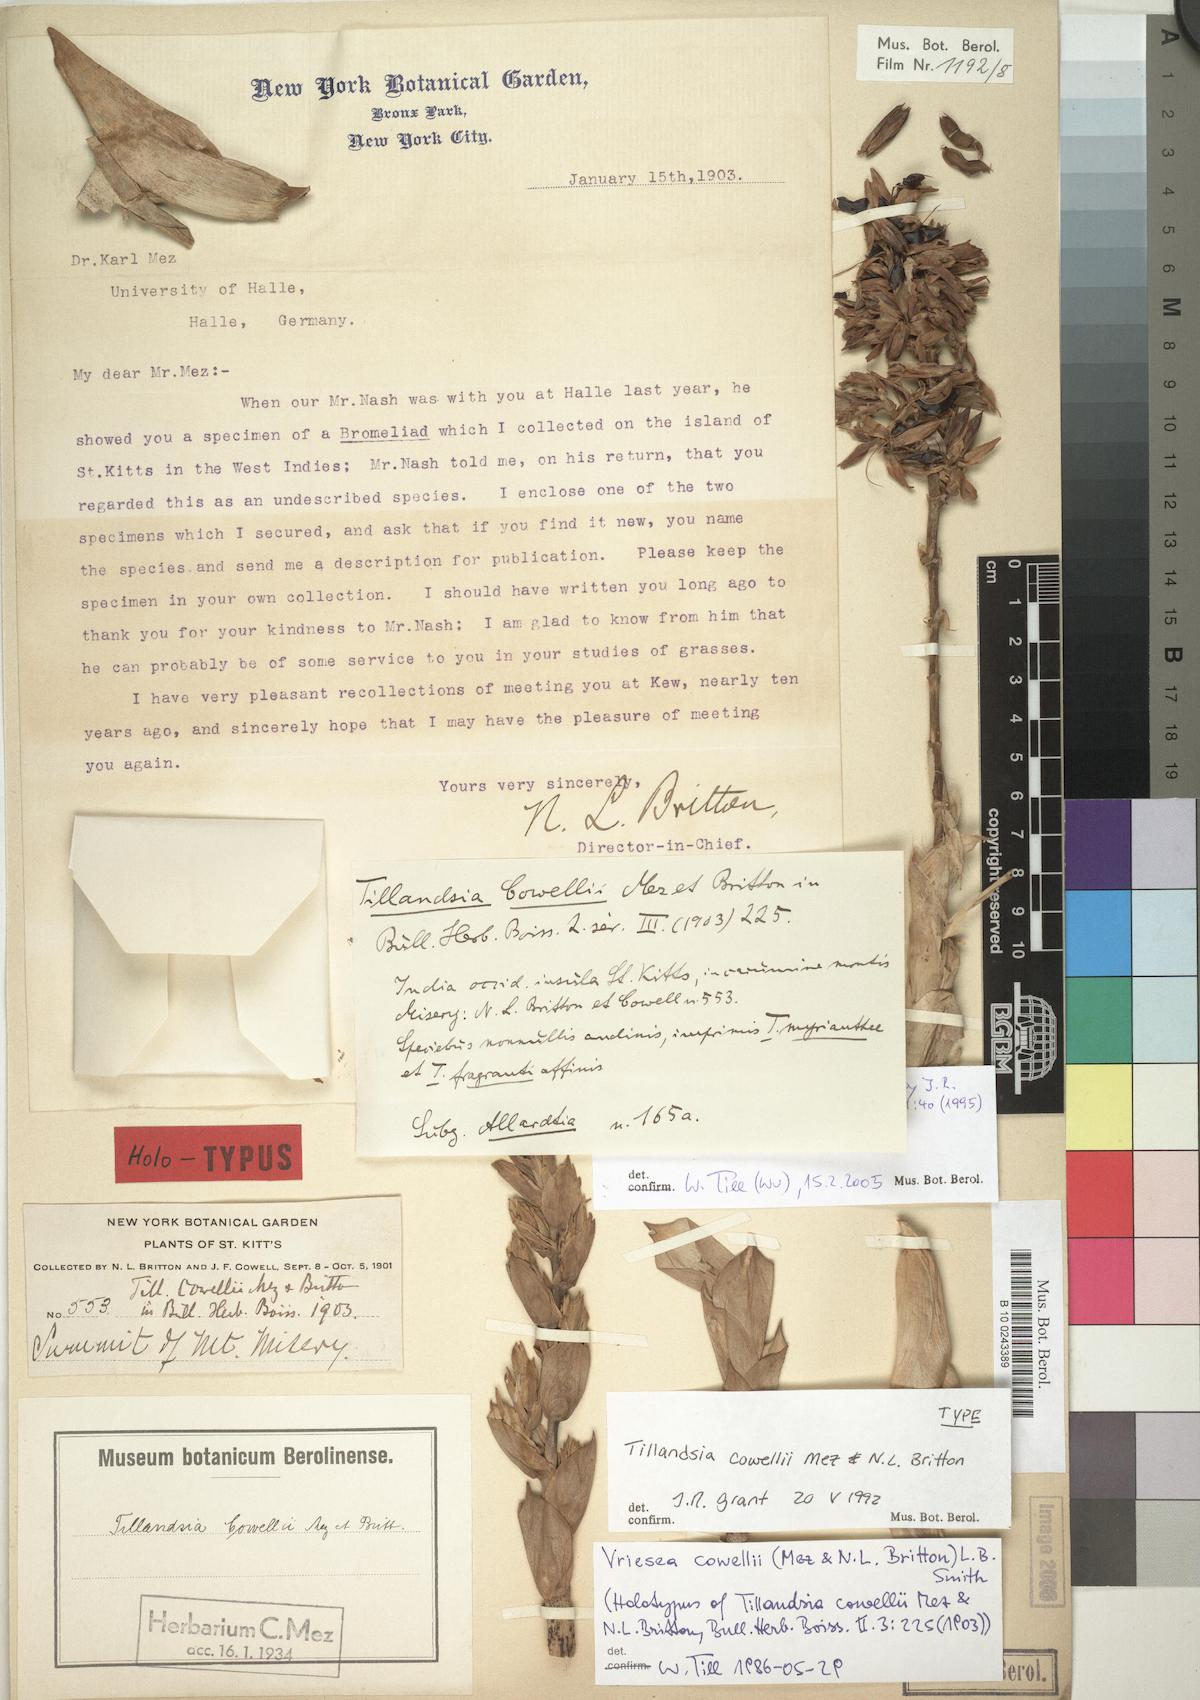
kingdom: Plantae
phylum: Tracheophyta
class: Liliopsida
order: Poales
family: Bromeliaceae
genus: Werauhia
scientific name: Werauhia cowellii
